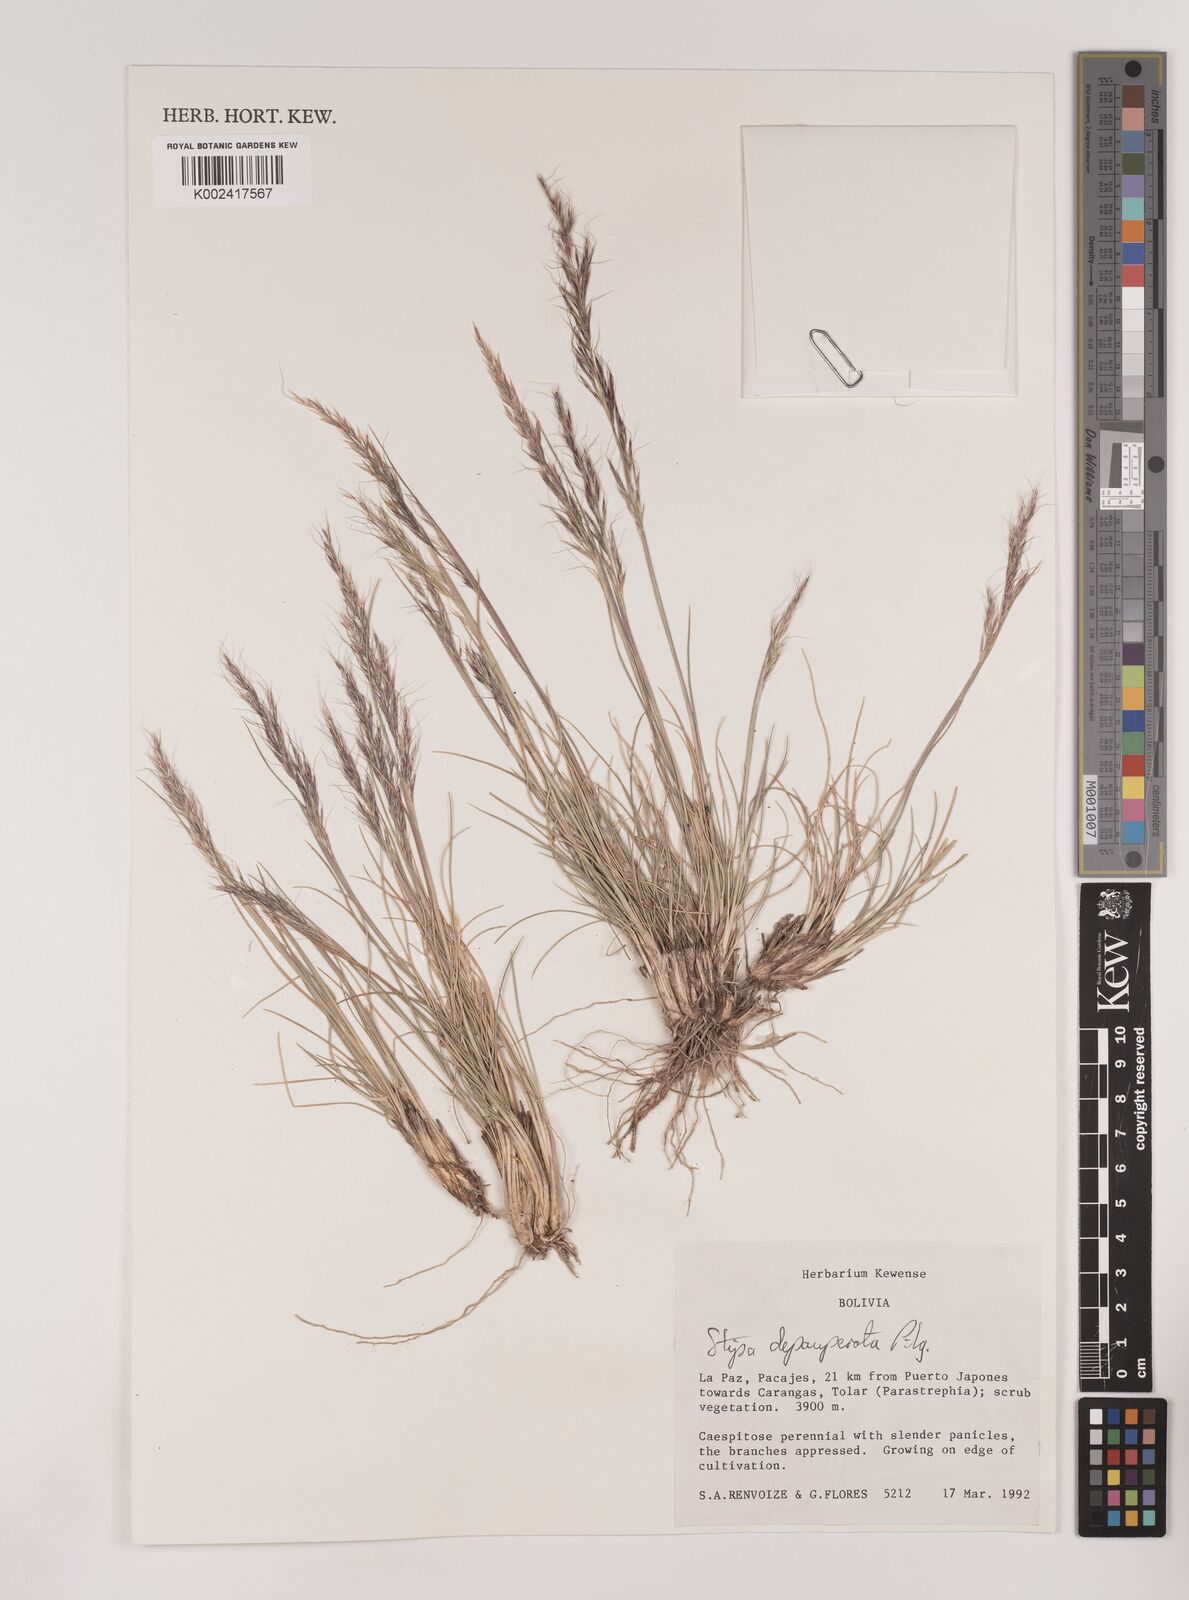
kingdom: Plantae
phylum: Tracheophyta
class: Liliopsida
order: Poales
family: Poaceae
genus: Nassella
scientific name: Nassella rupestris
